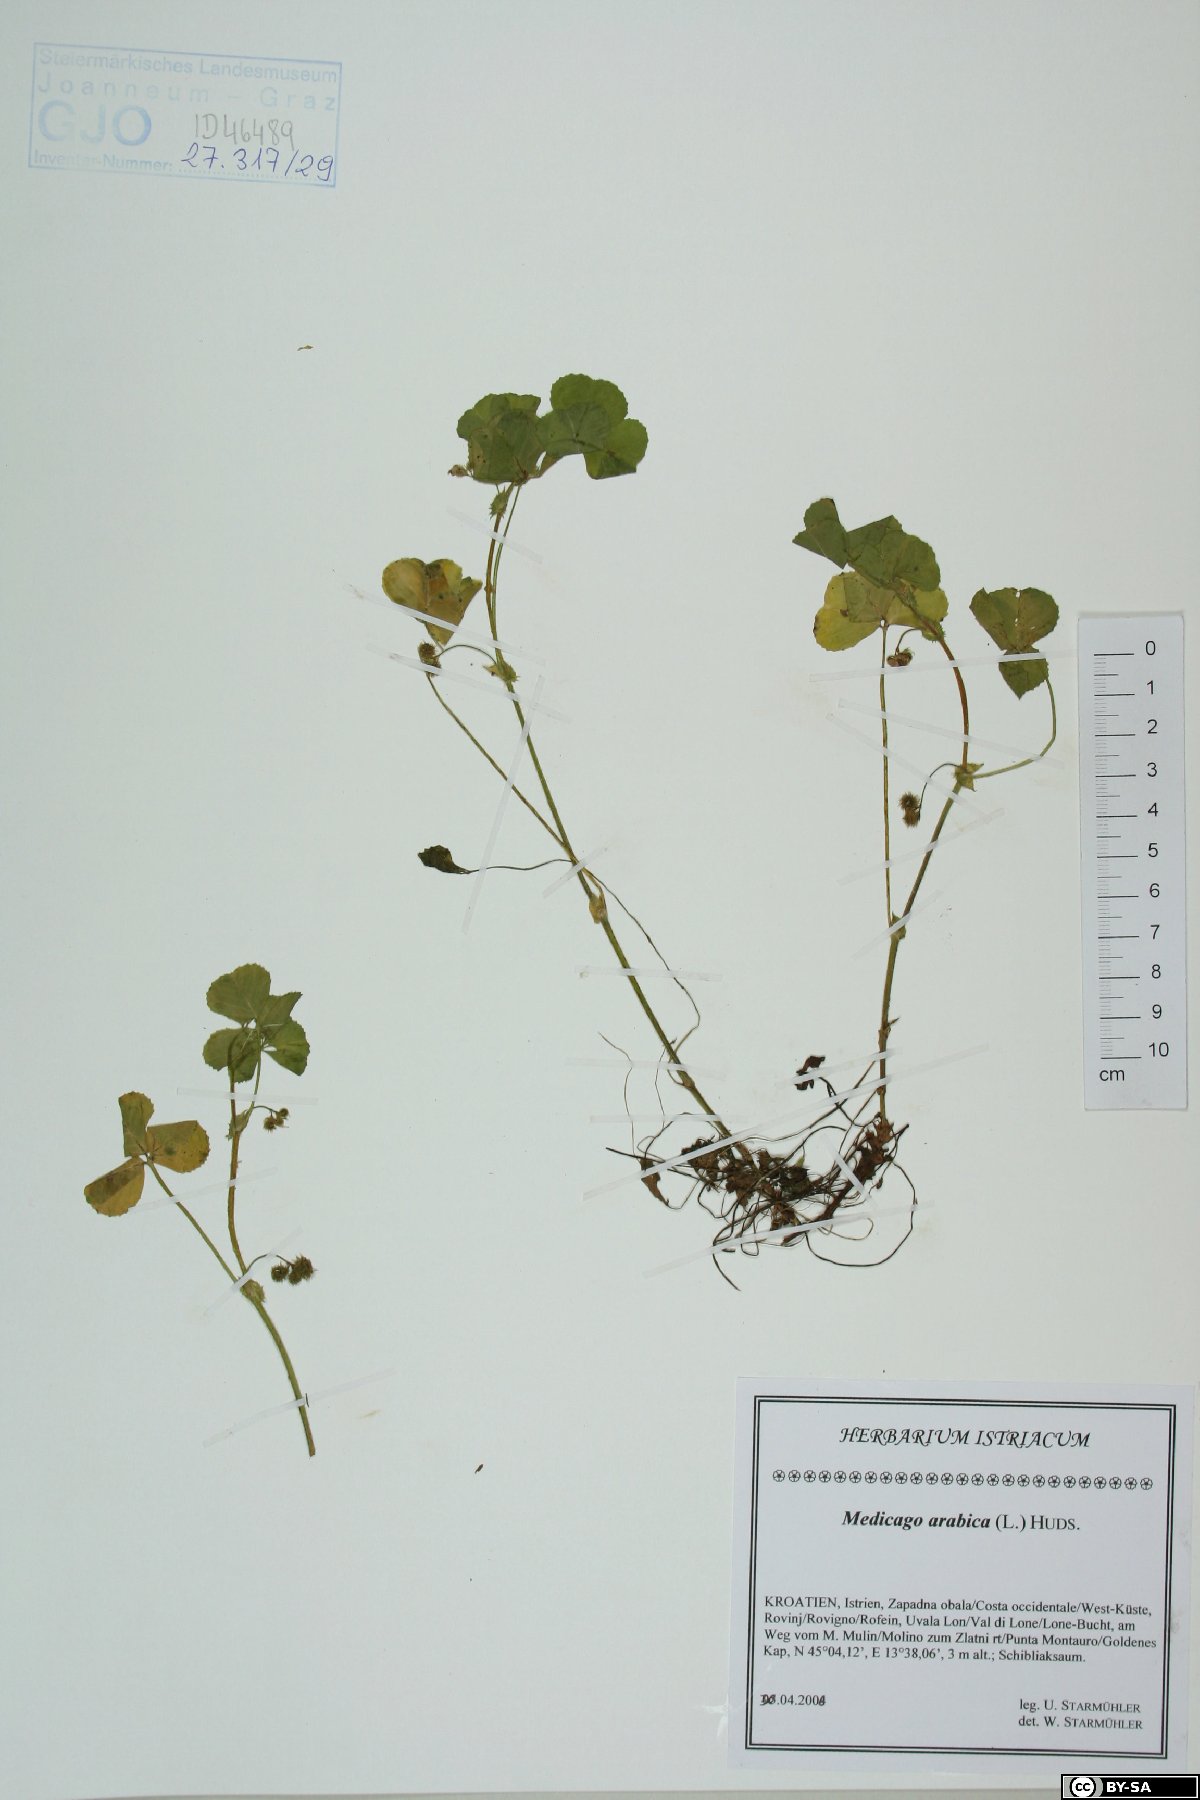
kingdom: Plantae
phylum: Tracheophyta
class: Magnoliopsida
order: Fabales
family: Fabaceae
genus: Medicago
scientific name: Medicago arabica
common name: Spotted medick
